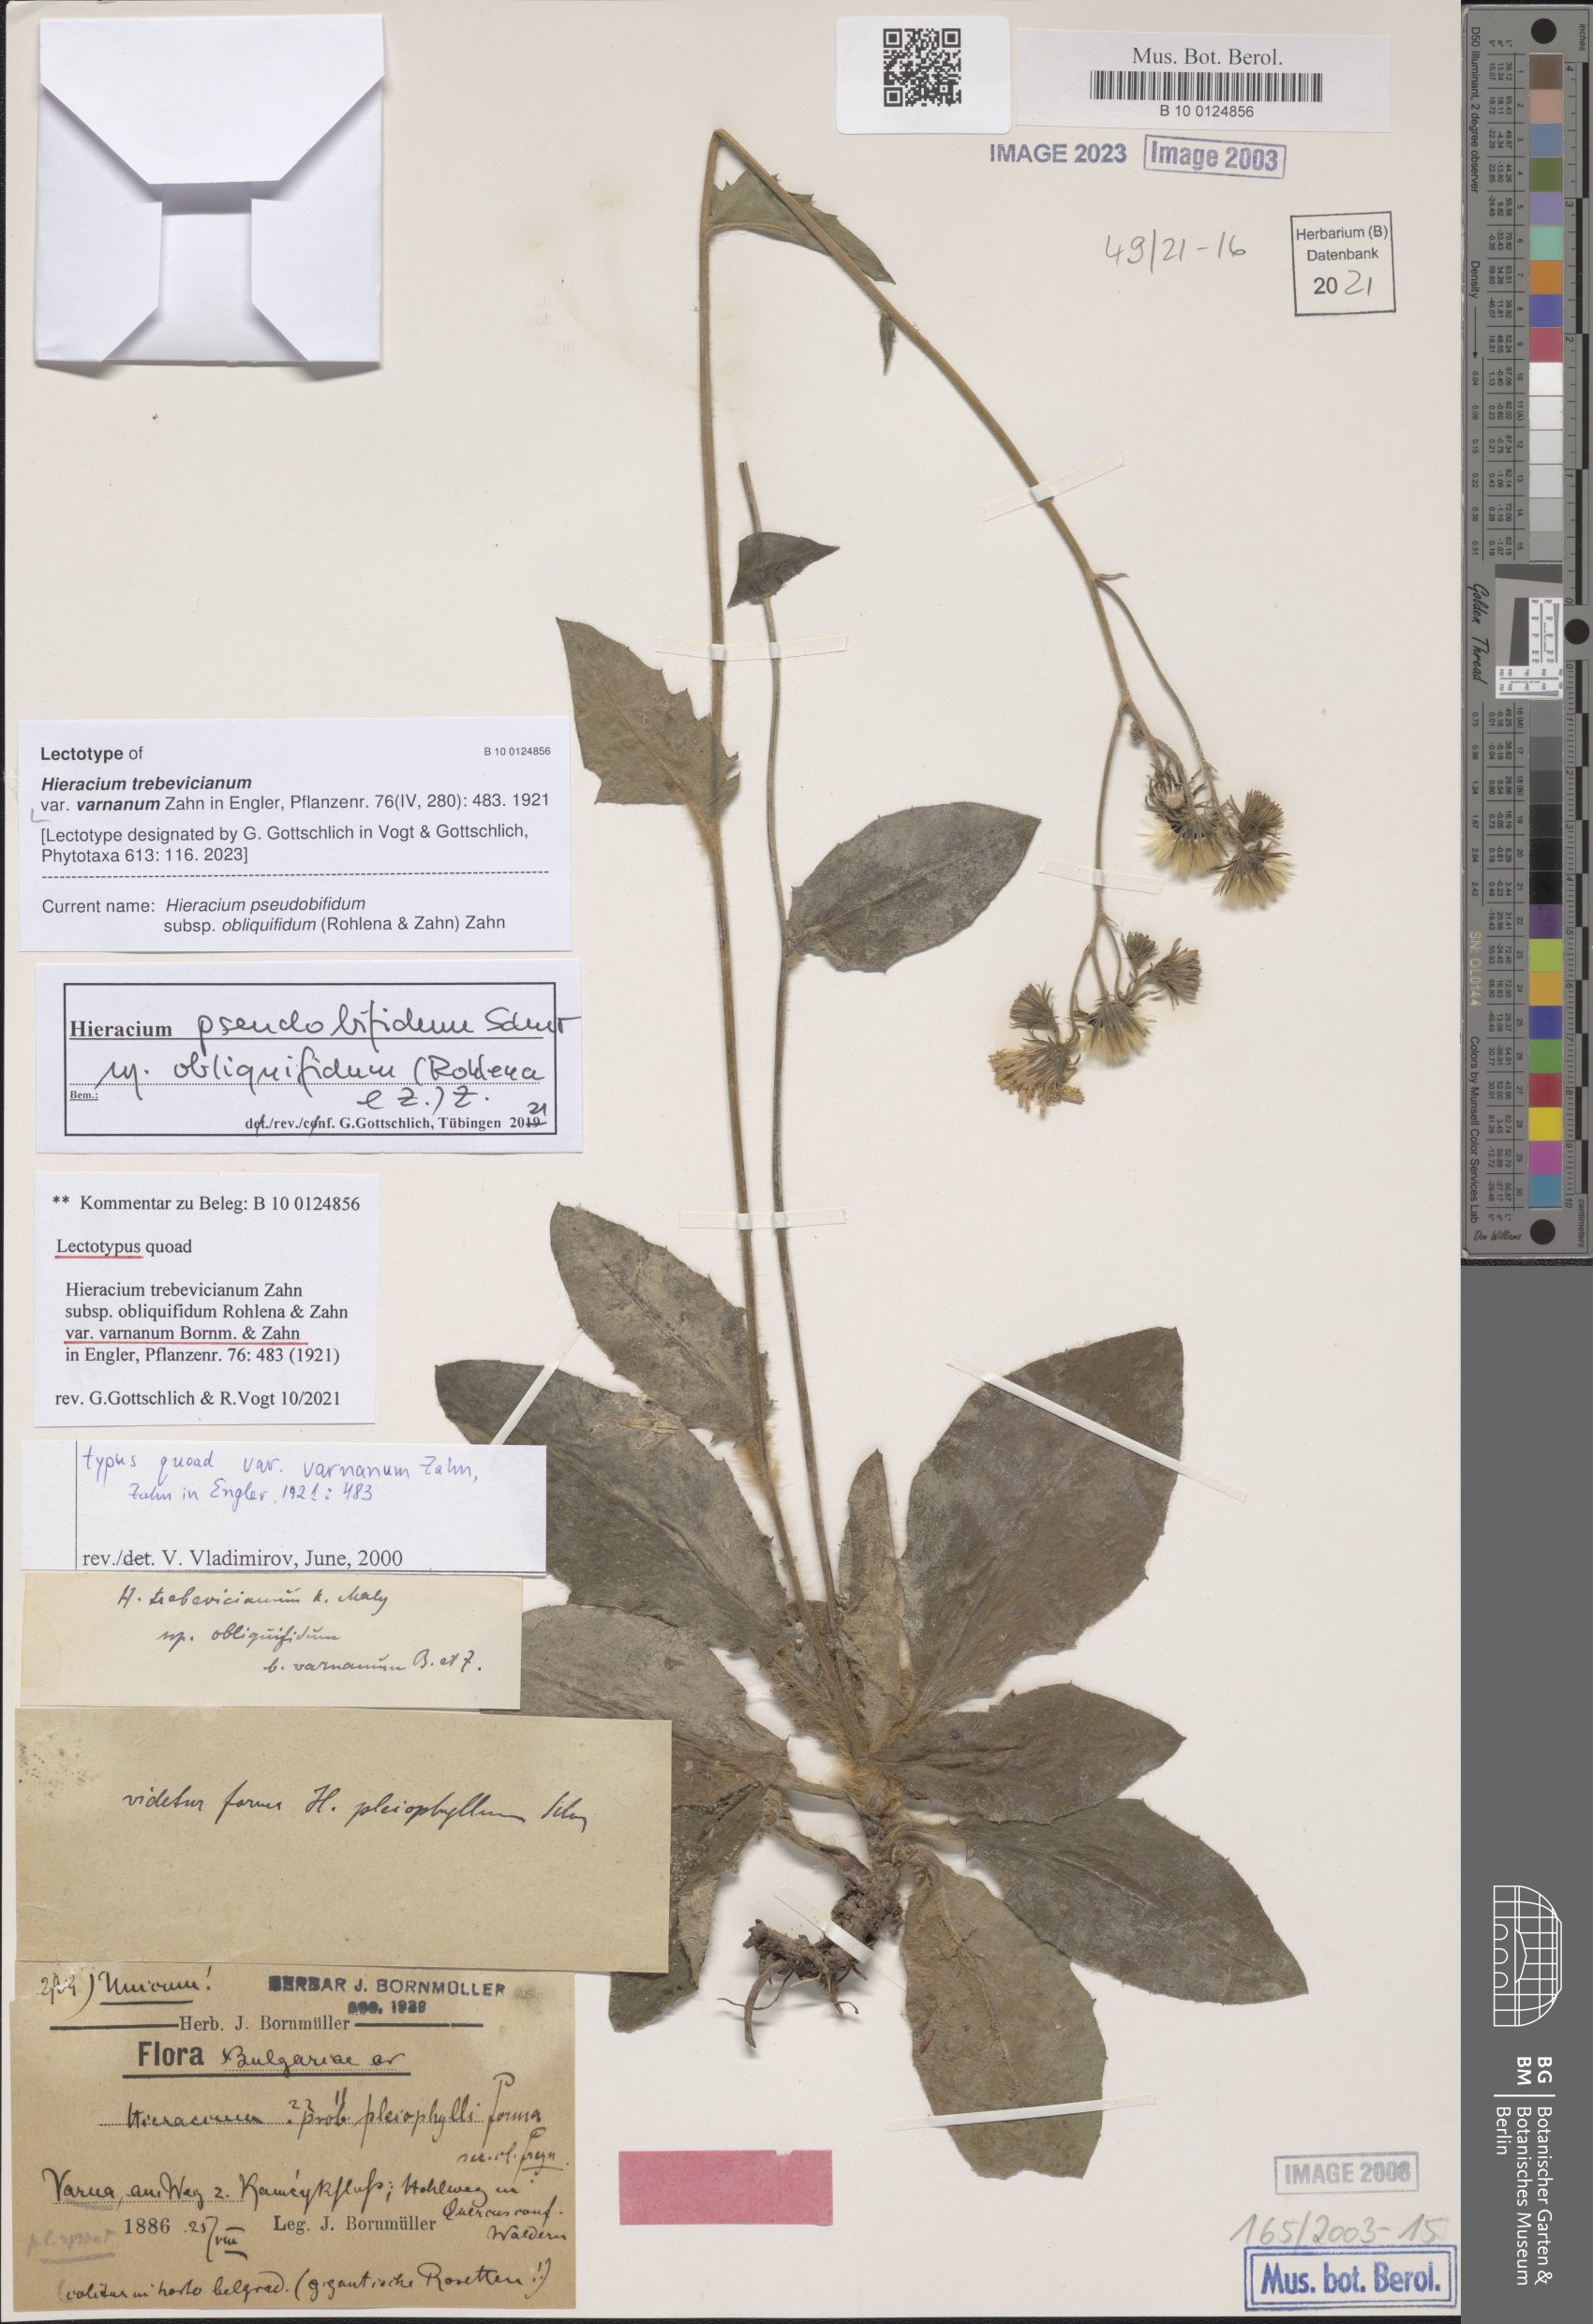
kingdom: Plantae
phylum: Tracheophyta
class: Magnoliopsida
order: Asterales
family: Asteraceae
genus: Hieracium
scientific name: Hieracium trebevicianum
